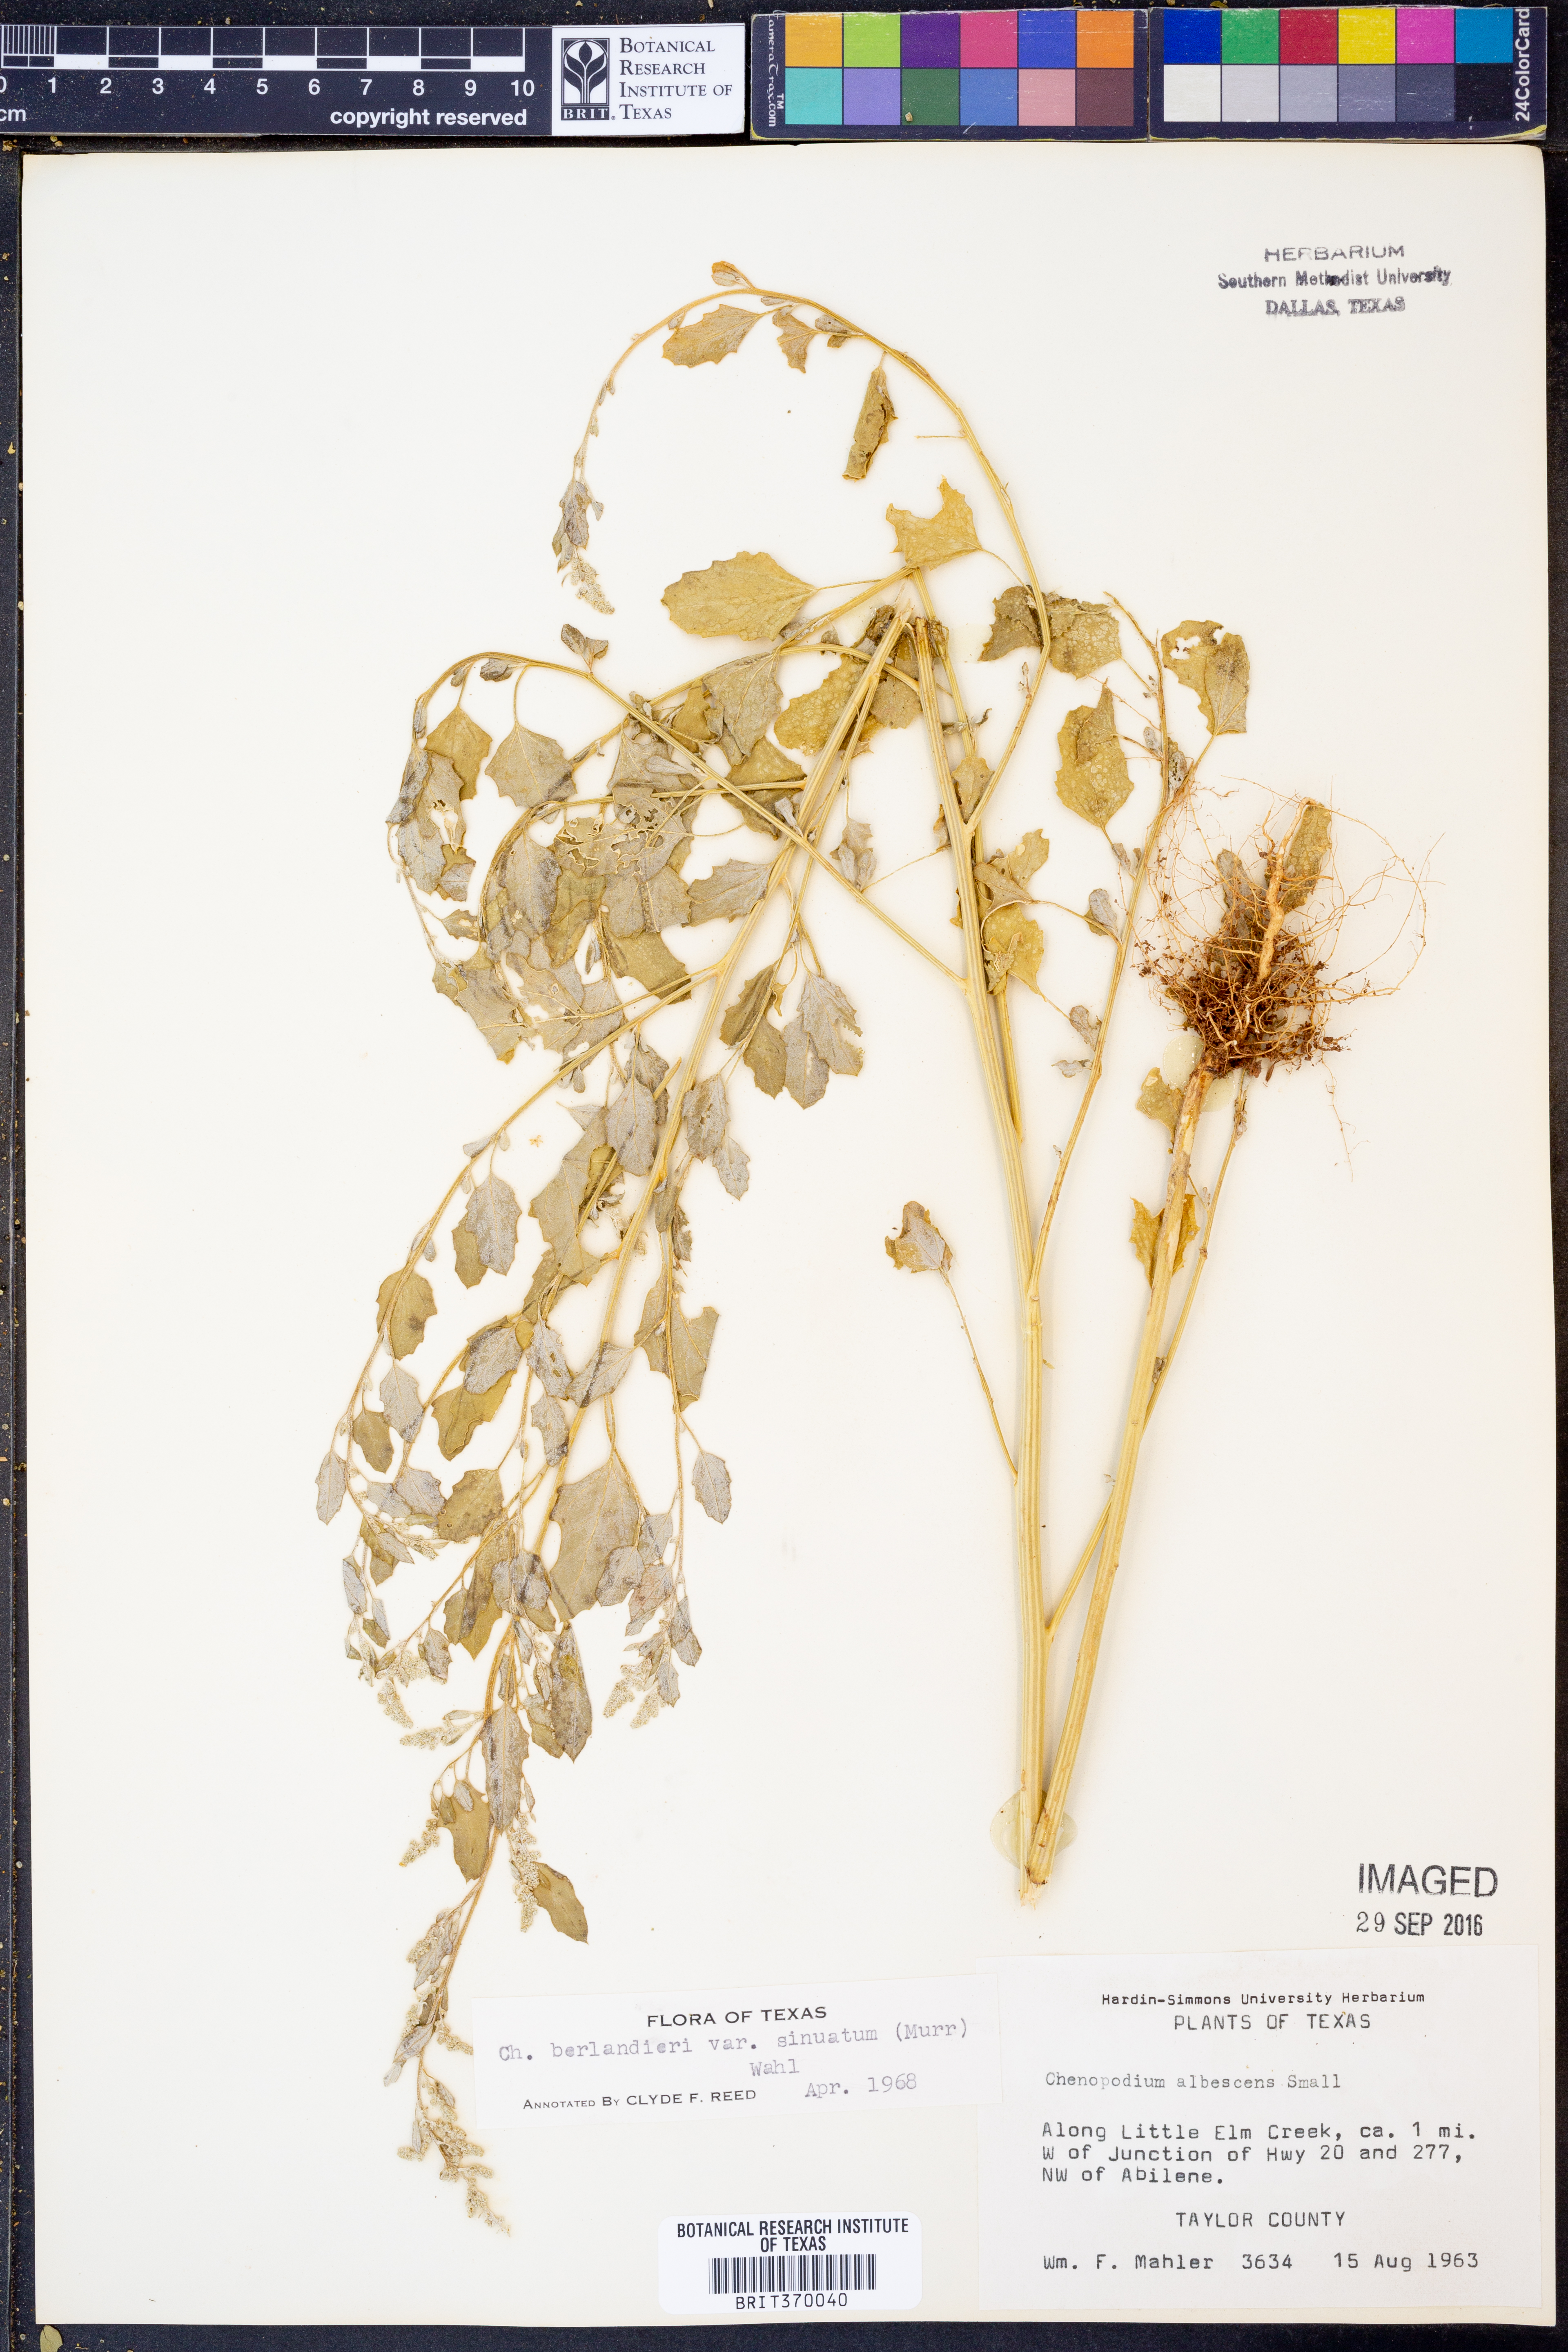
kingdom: Plantae
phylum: Tracheophyta
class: Magnoliopsida
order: Caryophyllales
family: Amaranthaceae
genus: Chenopodium
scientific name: Chenopodium berlandieri
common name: Pit-seed goosefoot
